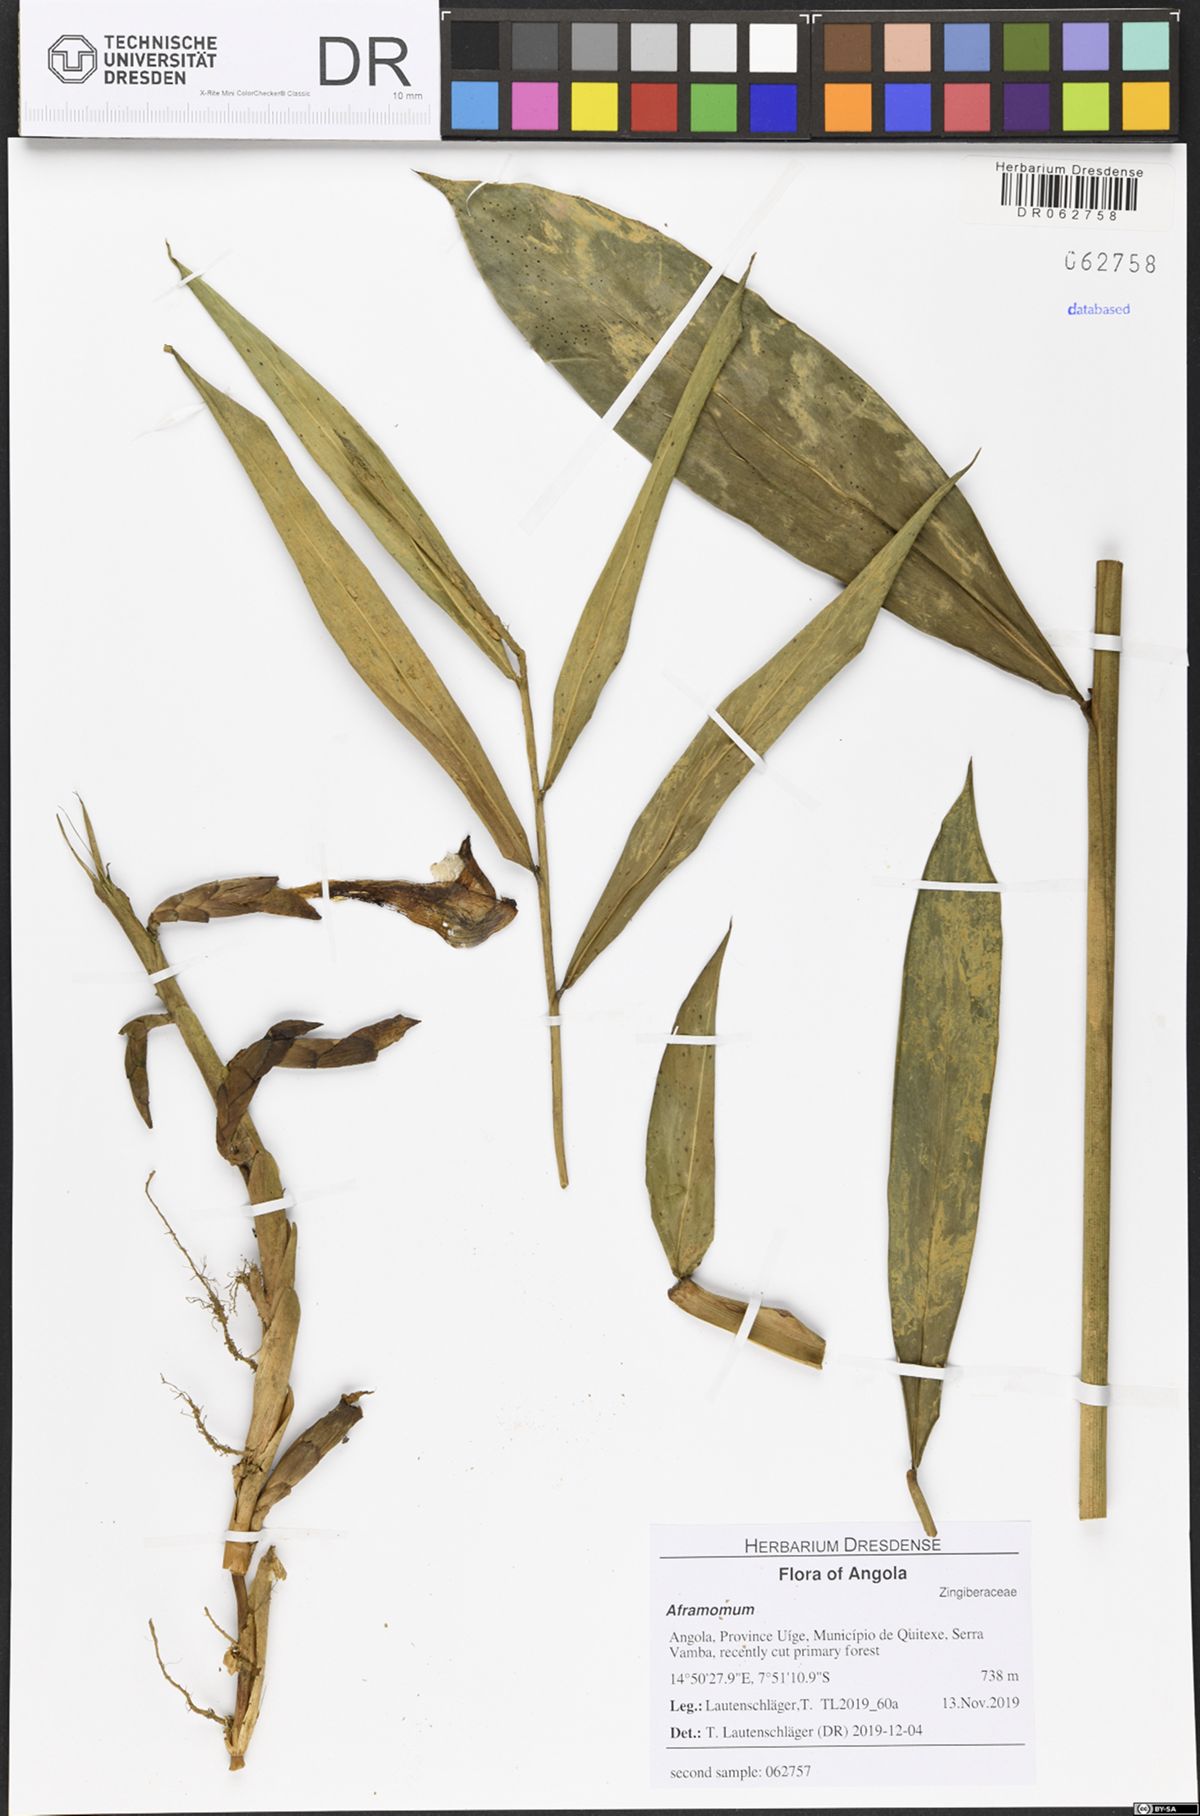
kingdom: Plantae
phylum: Tracheophyta
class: Liliopsida
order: Zingiberales
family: Zingiberaceae
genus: Aframomum
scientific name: Aframomum parvulum
